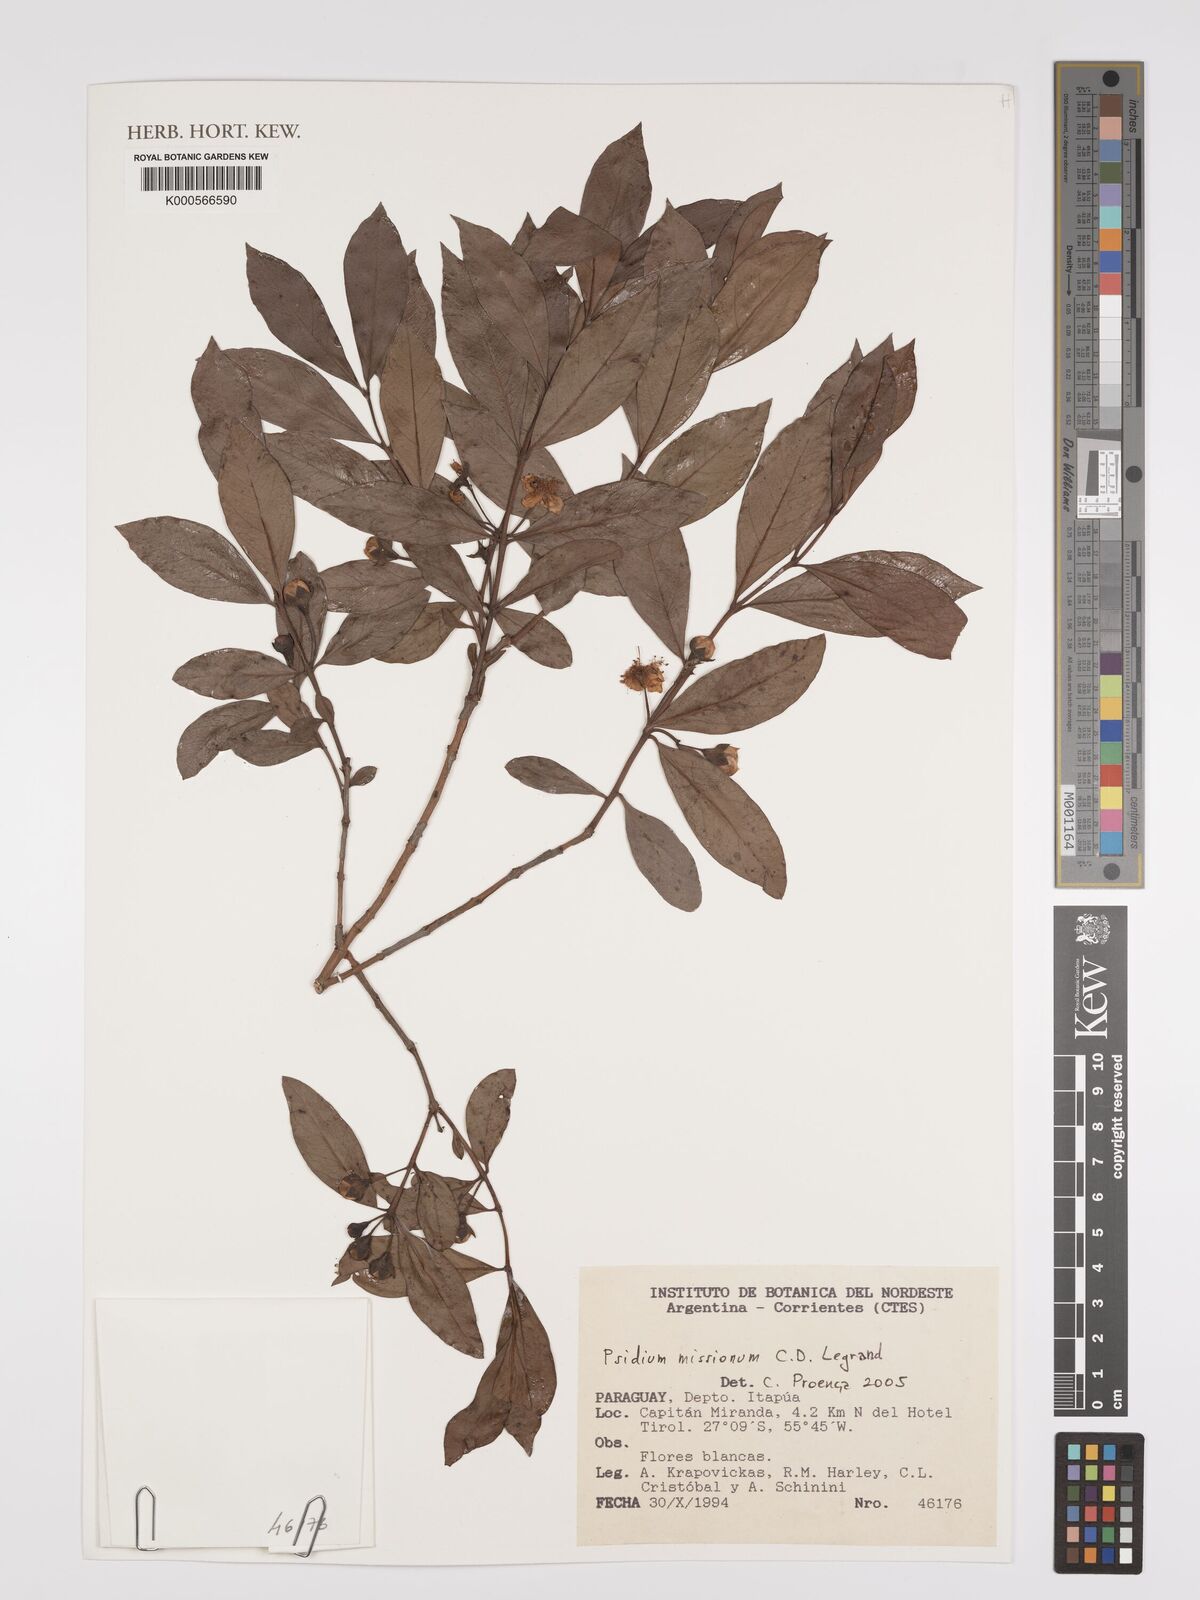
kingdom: Plantae
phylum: Tracheophyta
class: Magnoliopsida
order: Myrtales
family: Myrtaceae
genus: Psidium
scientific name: Psidium misionum
